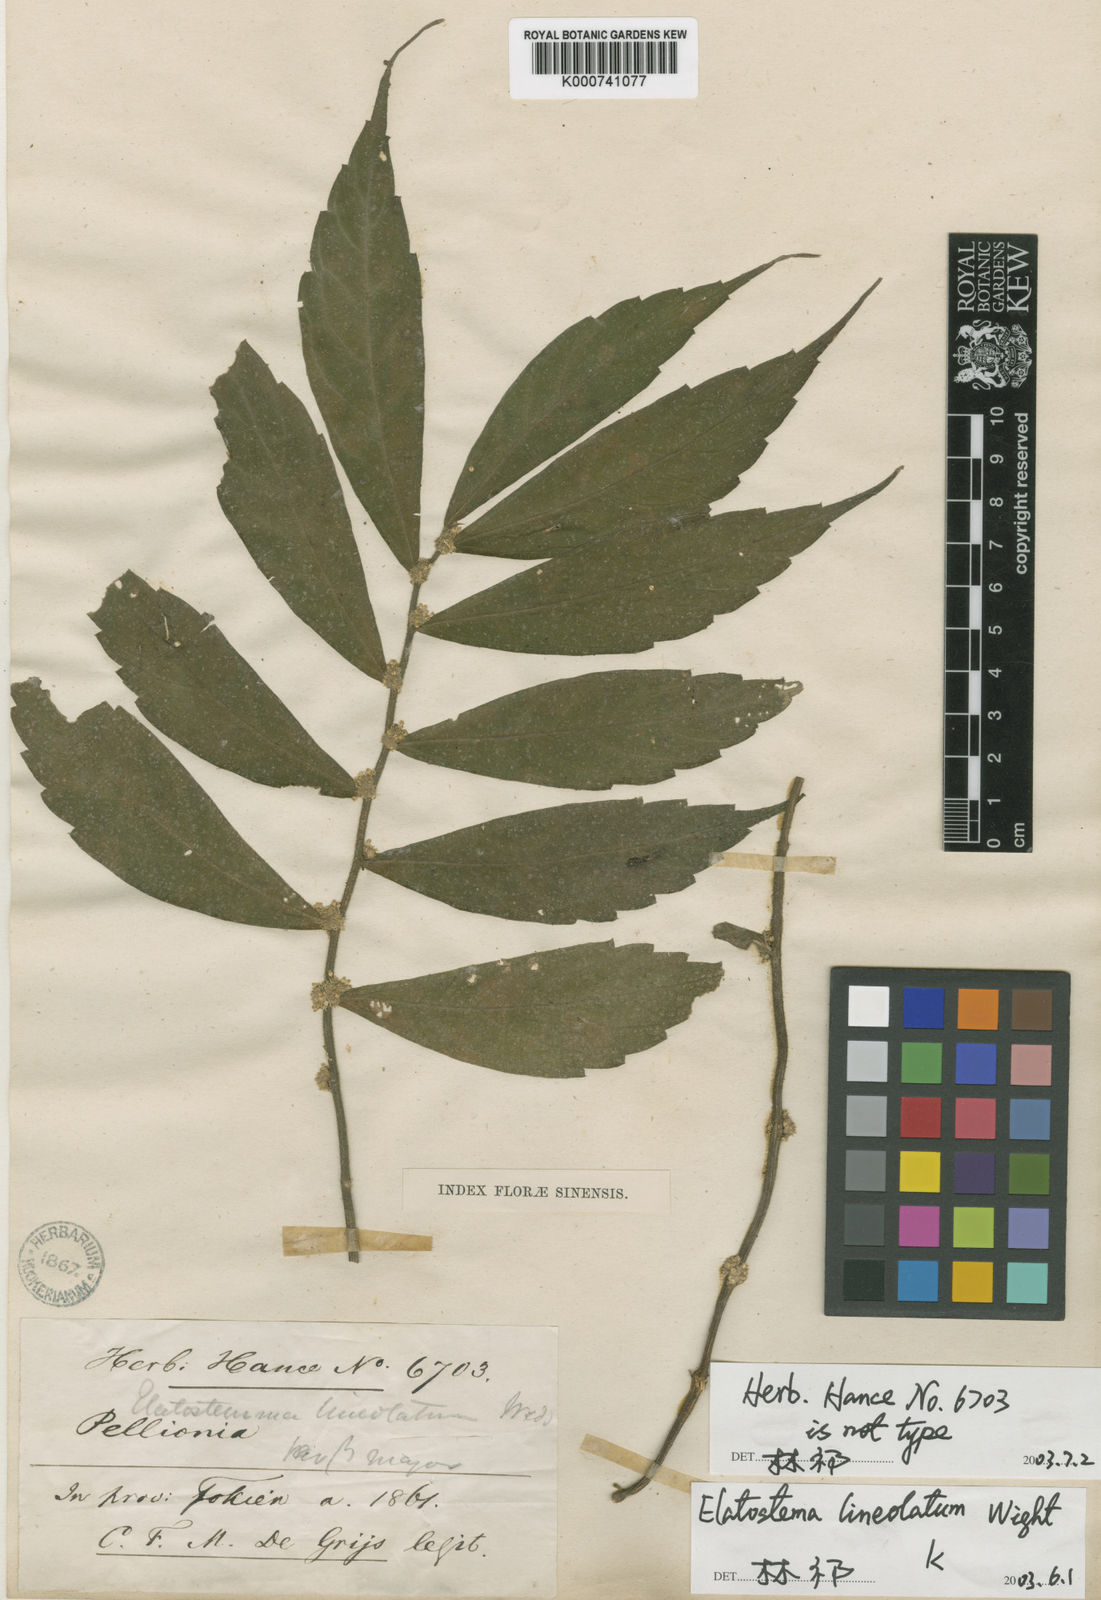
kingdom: Plantae
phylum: Tracheophyta
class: Magnoliopsida
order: Rosales
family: Urticaceae
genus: Elatostema
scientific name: Elatostema lineolatum
